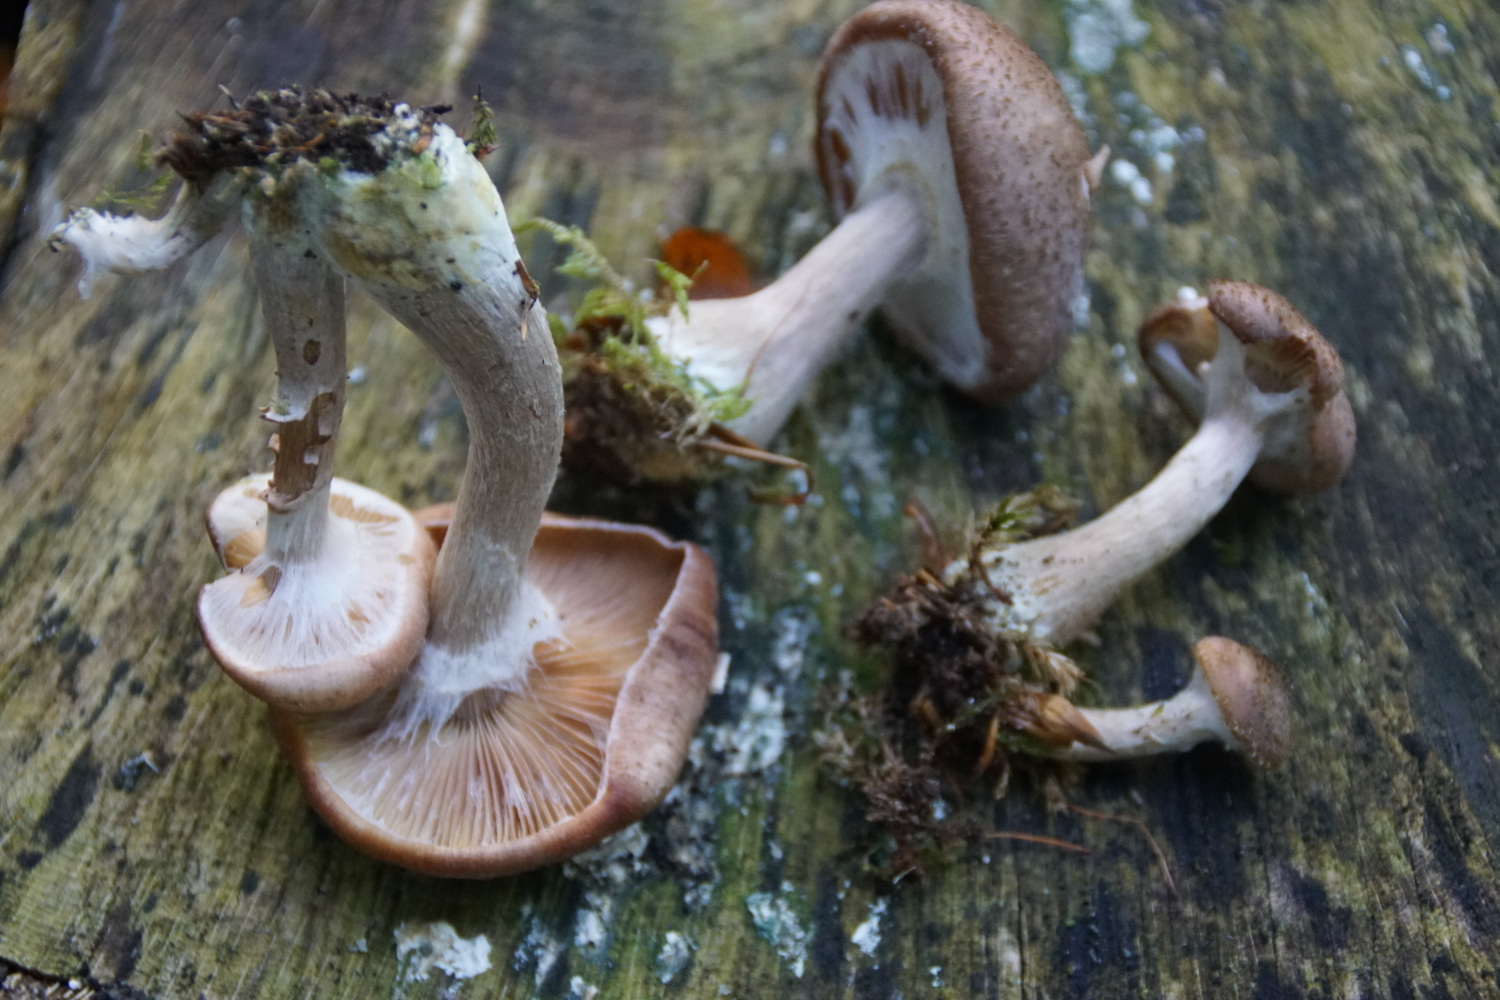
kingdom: Fungi
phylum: Basidiomycota
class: Agaricomycetes
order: Agaricales
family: Physalacriaceae
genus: Armillaria
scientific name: Armillaria lutea
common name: køllestokket honningsvamp
